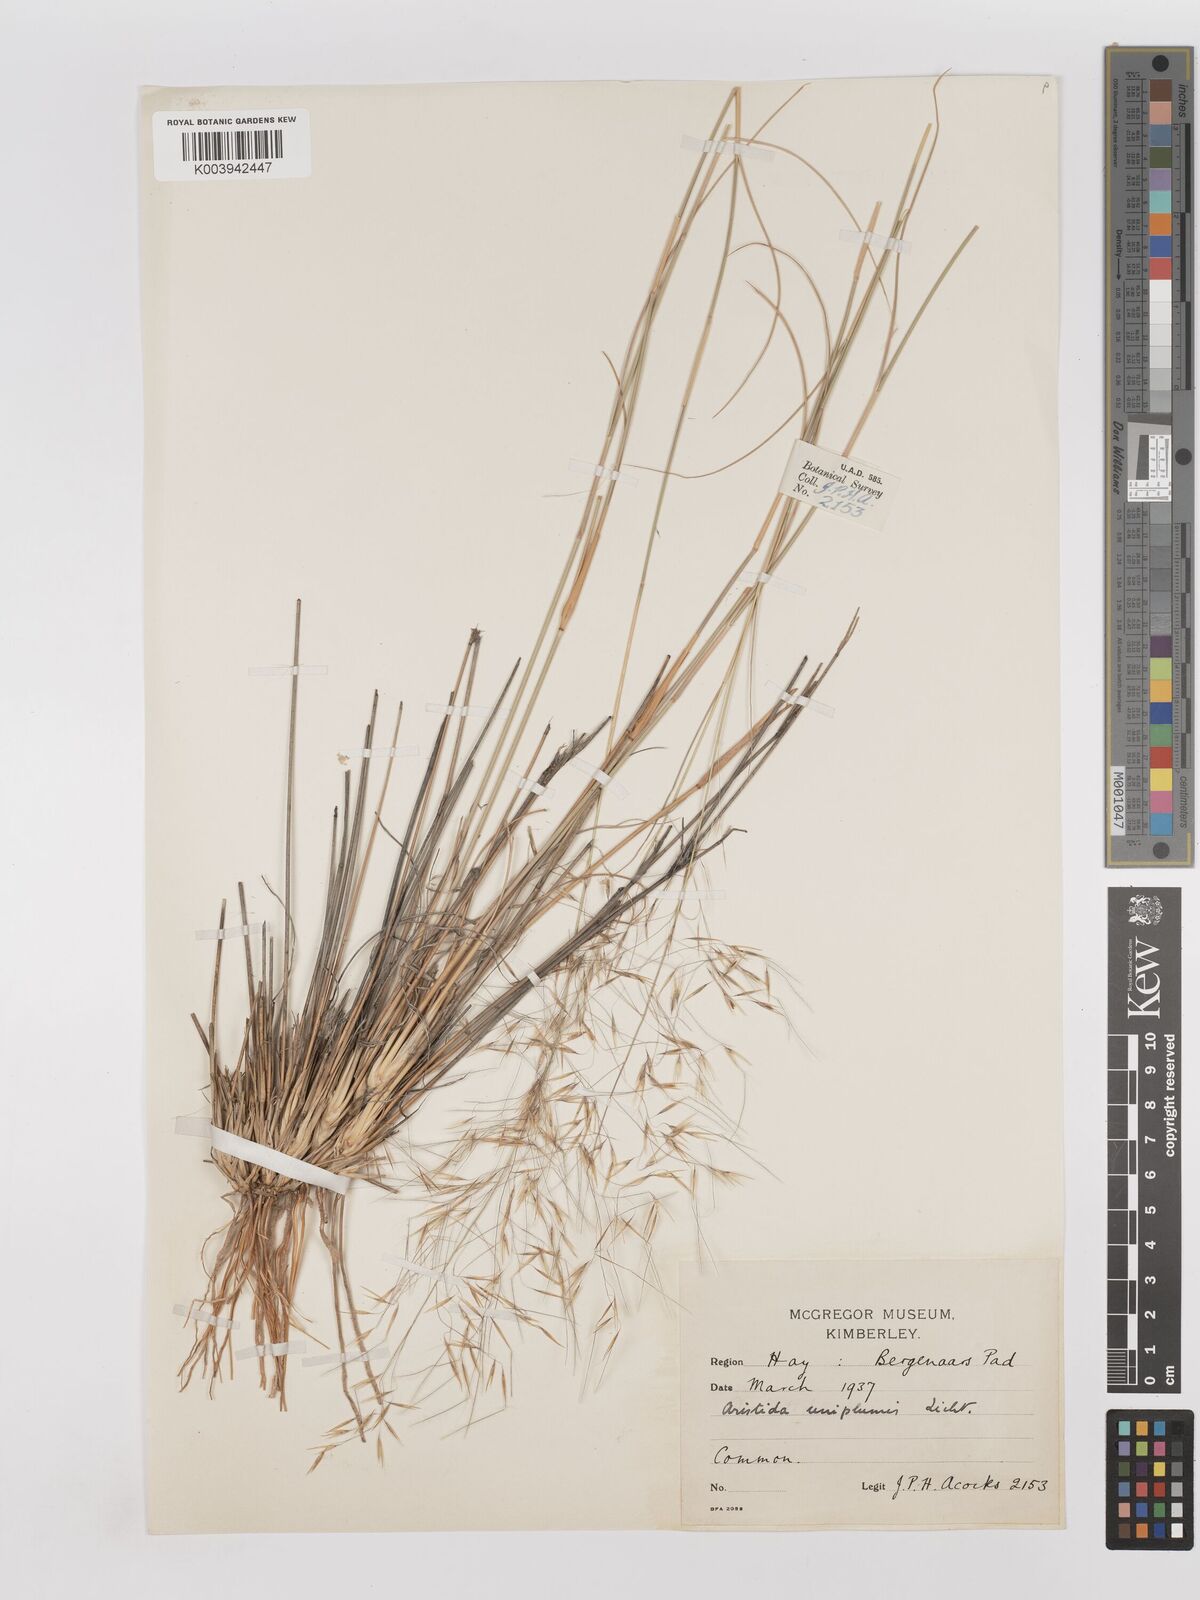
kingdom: Plantae
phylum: Tracheophyta
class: Liliopsida
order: Poales
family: Poaceae
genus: Stipagrostis
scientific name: Stipagrostis uniplumis
